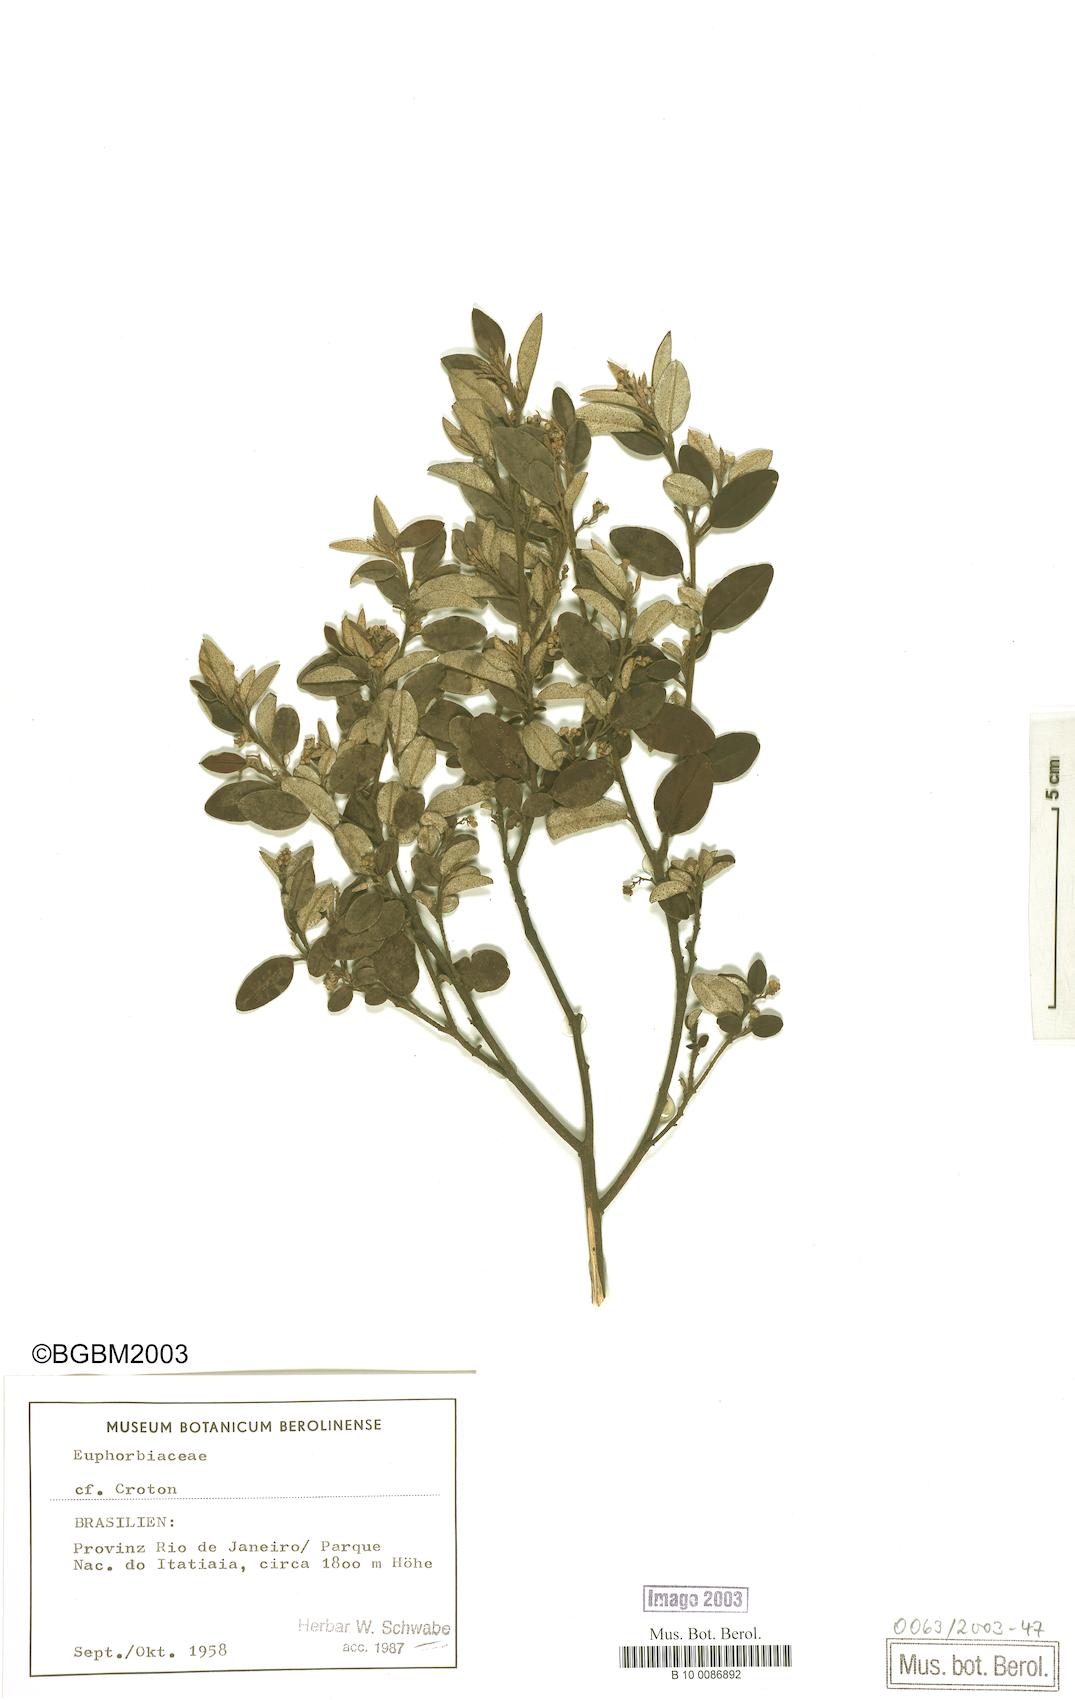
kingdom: Plantae
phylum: Tracheophyta
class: Magnoliopsida
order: Malpighiales
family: Euphorbiaceae
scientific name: Euphorbiaceae
